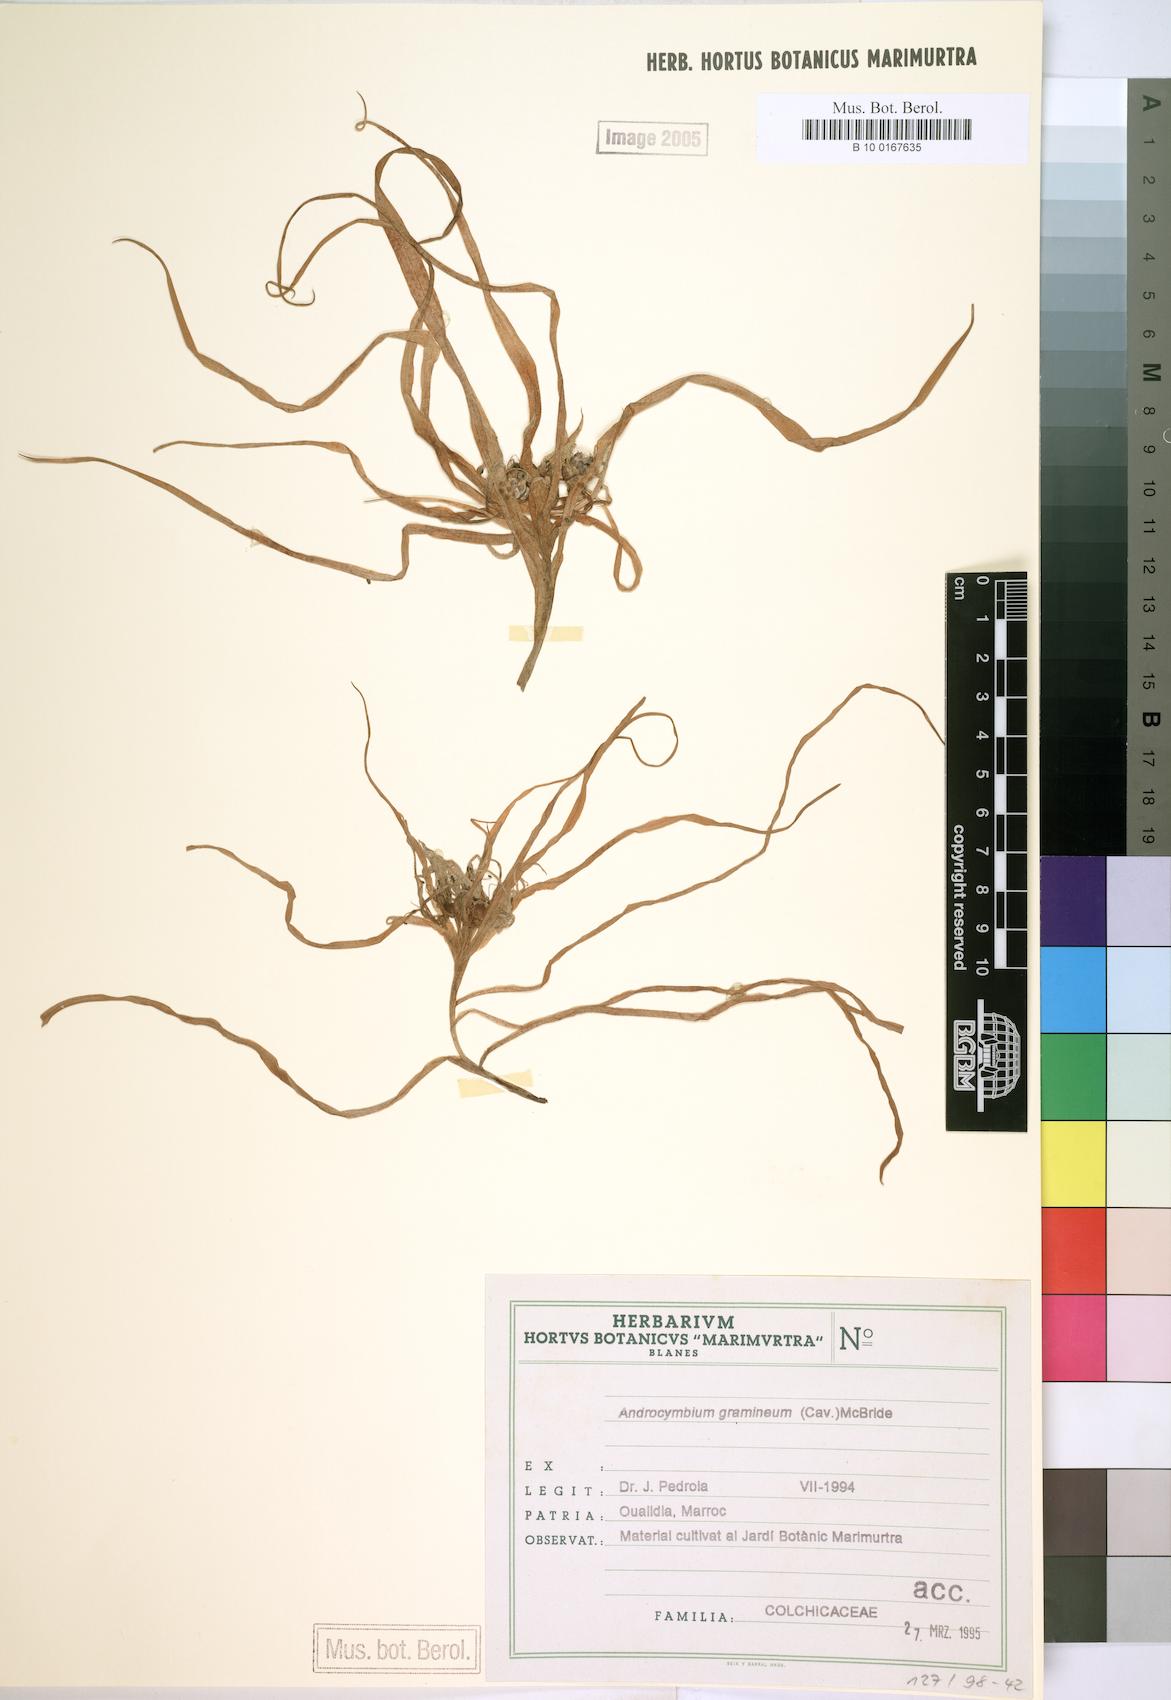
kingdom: Plantae
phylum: Tracheophyta
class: Liliopsida
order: Liliales
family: Colchicaceae
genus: Colchicum
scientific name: Colchicum gramineum
